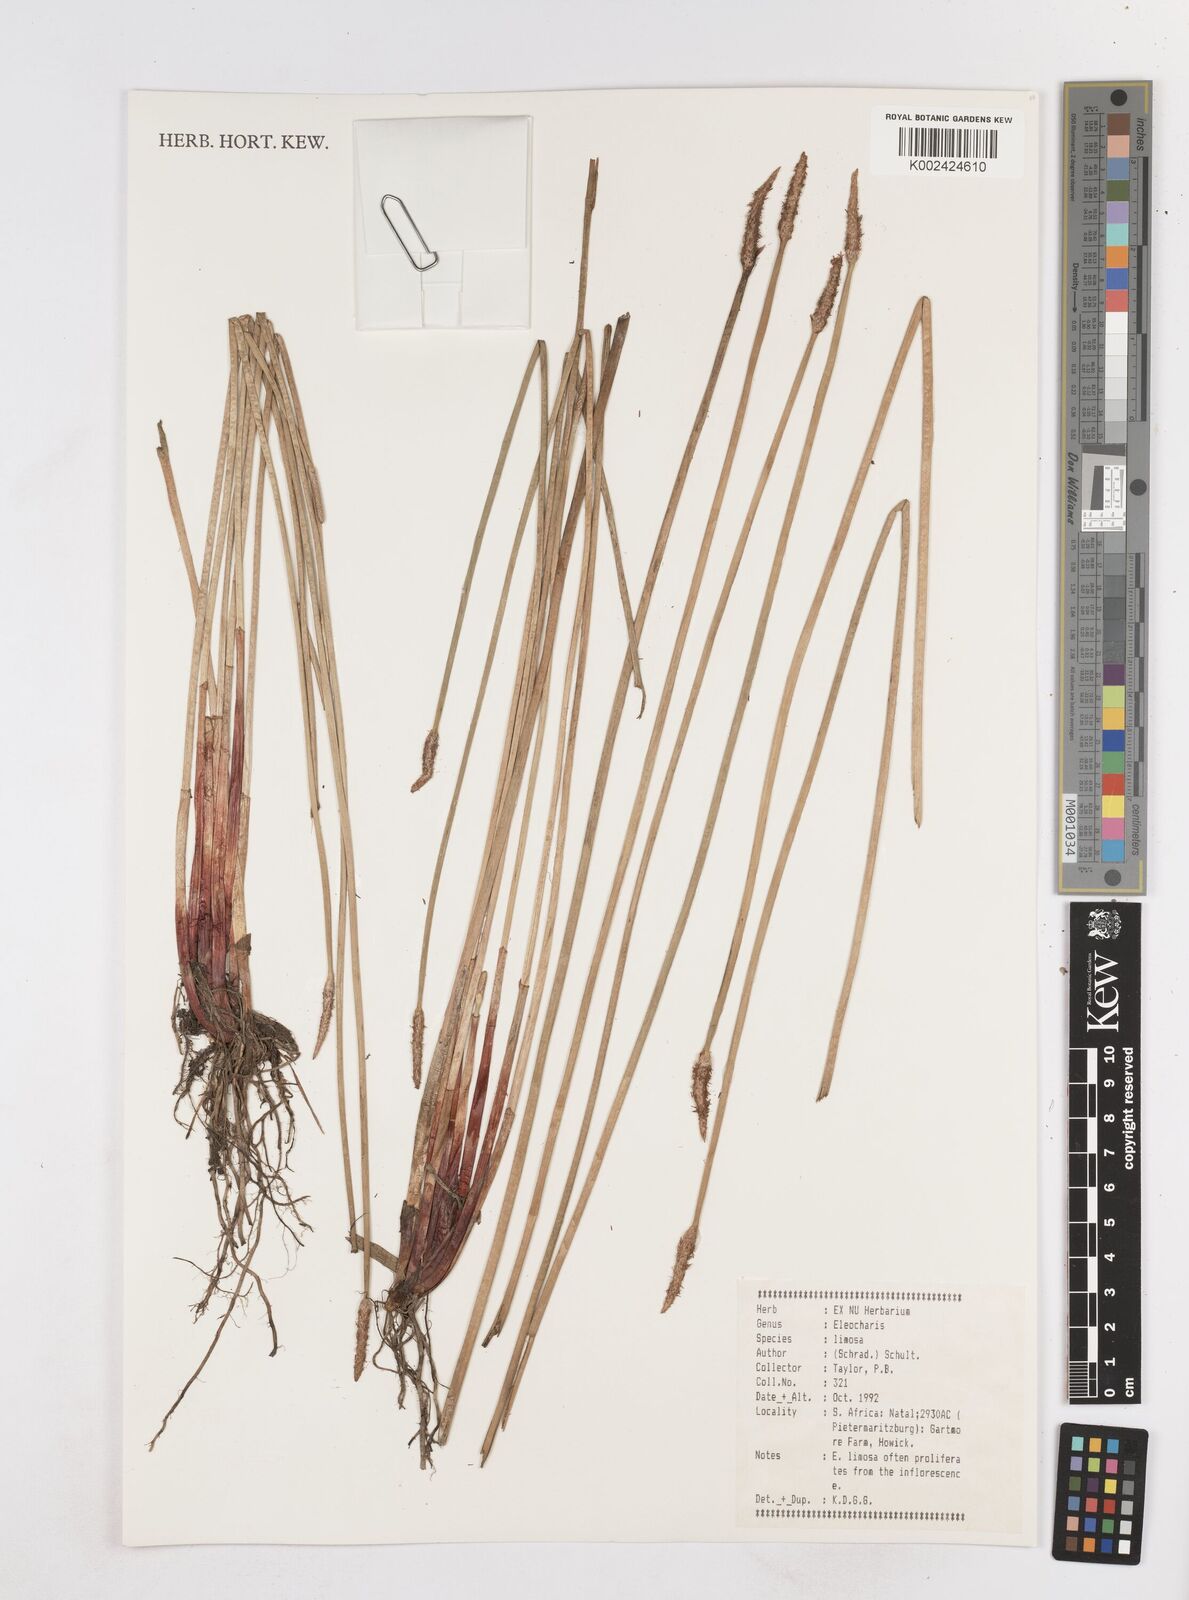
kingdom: Plantae
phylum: Tracheophyta
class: Liliopsida
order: Poales
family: Cyperaceae
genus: Eleocharis
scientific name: Eleocharis limosa
